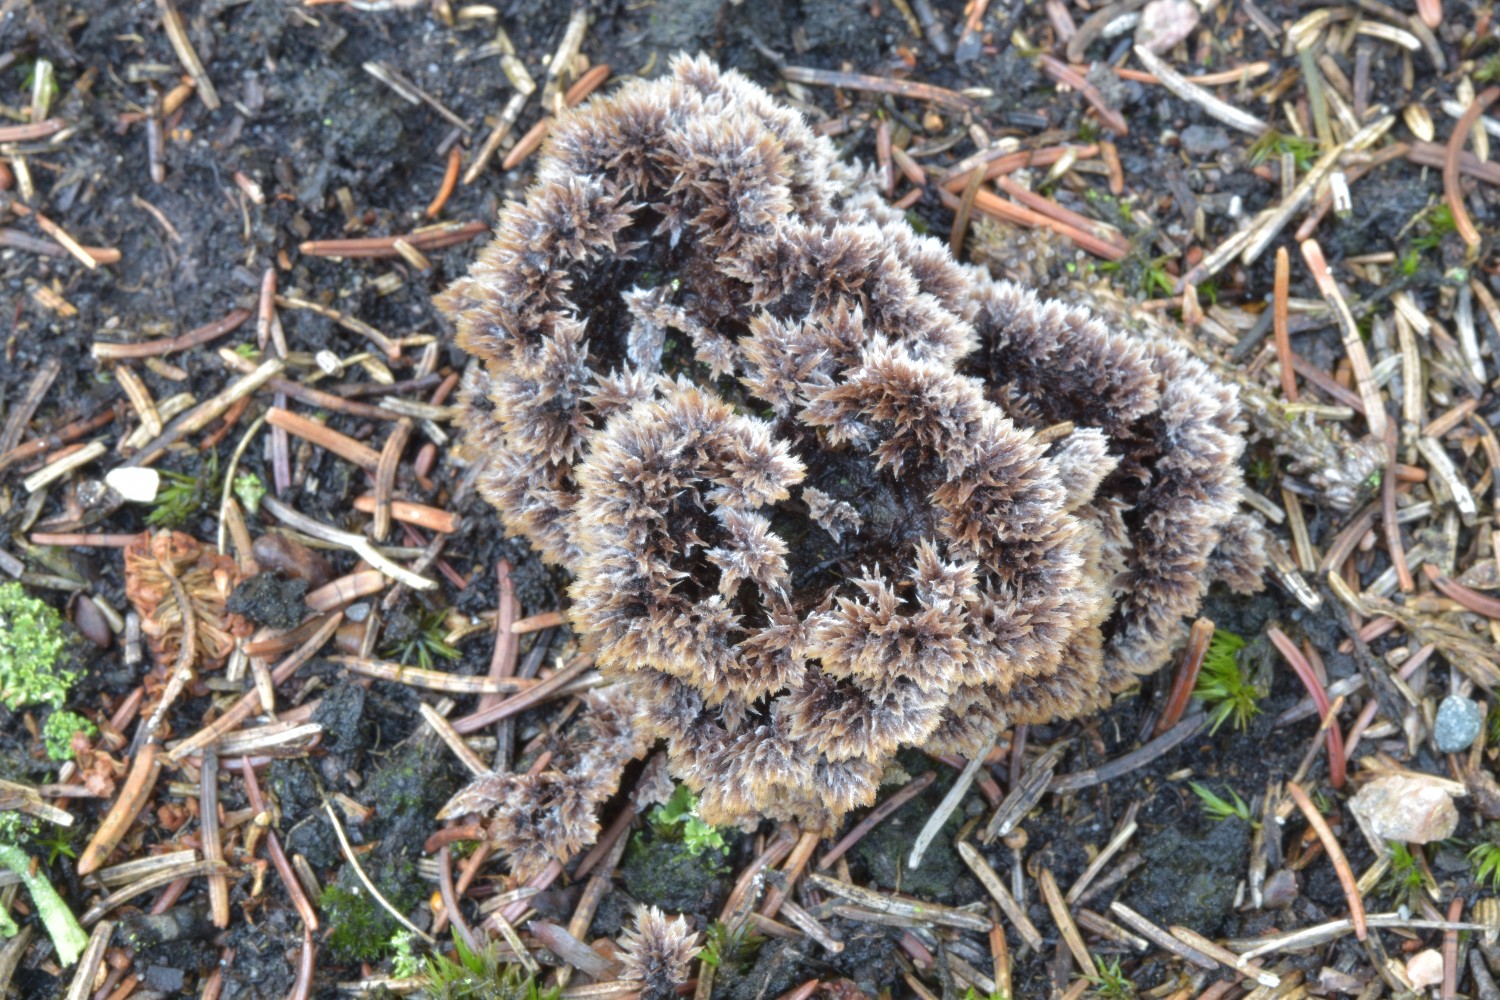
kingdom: Fungi
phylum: Basidiomycota
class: Agaricomycetes
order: Thelephorales
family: Thelephoraceae
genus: Thelephora
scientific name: Thelephora terrestris
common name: fliget frynsesvamp
